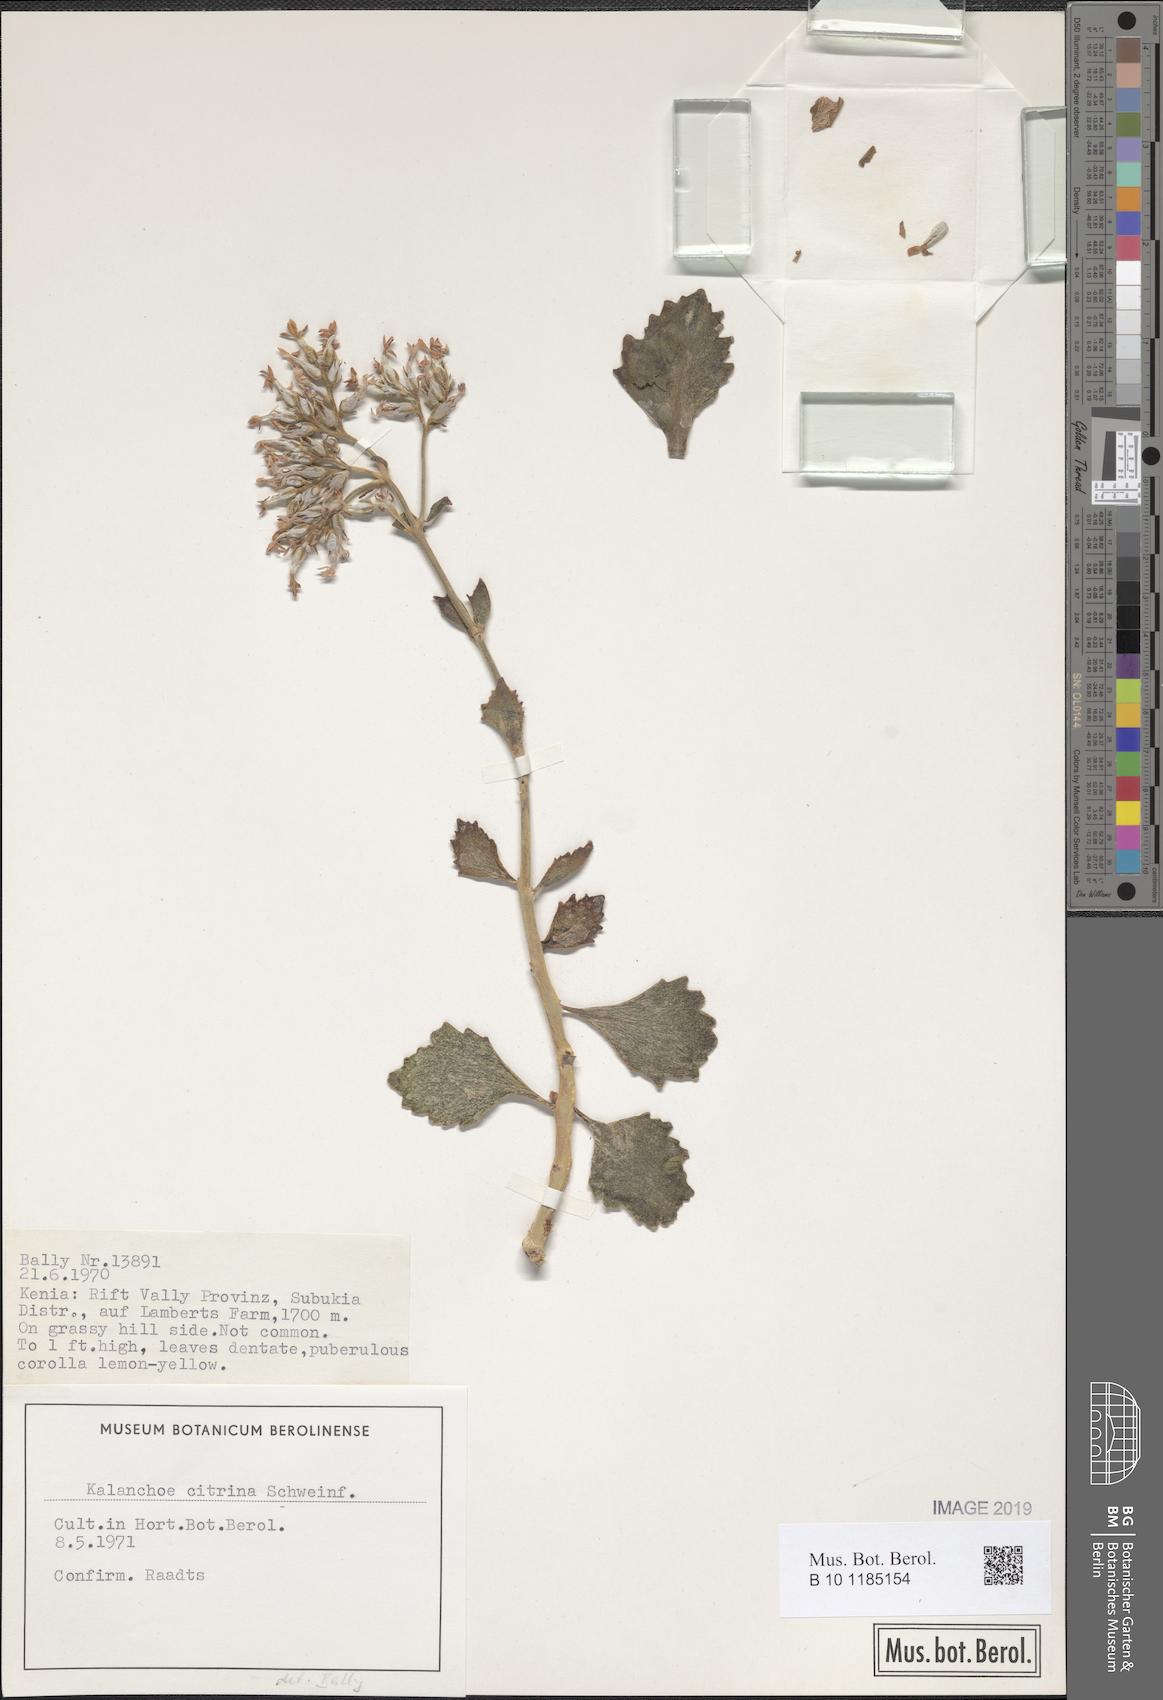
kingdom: Plantae
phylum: Tracheophyta
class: Magnoliopsida
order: Saxifragales
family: Crassulaceae
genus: Kalanchoe
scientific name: Kalanchoe citrina
